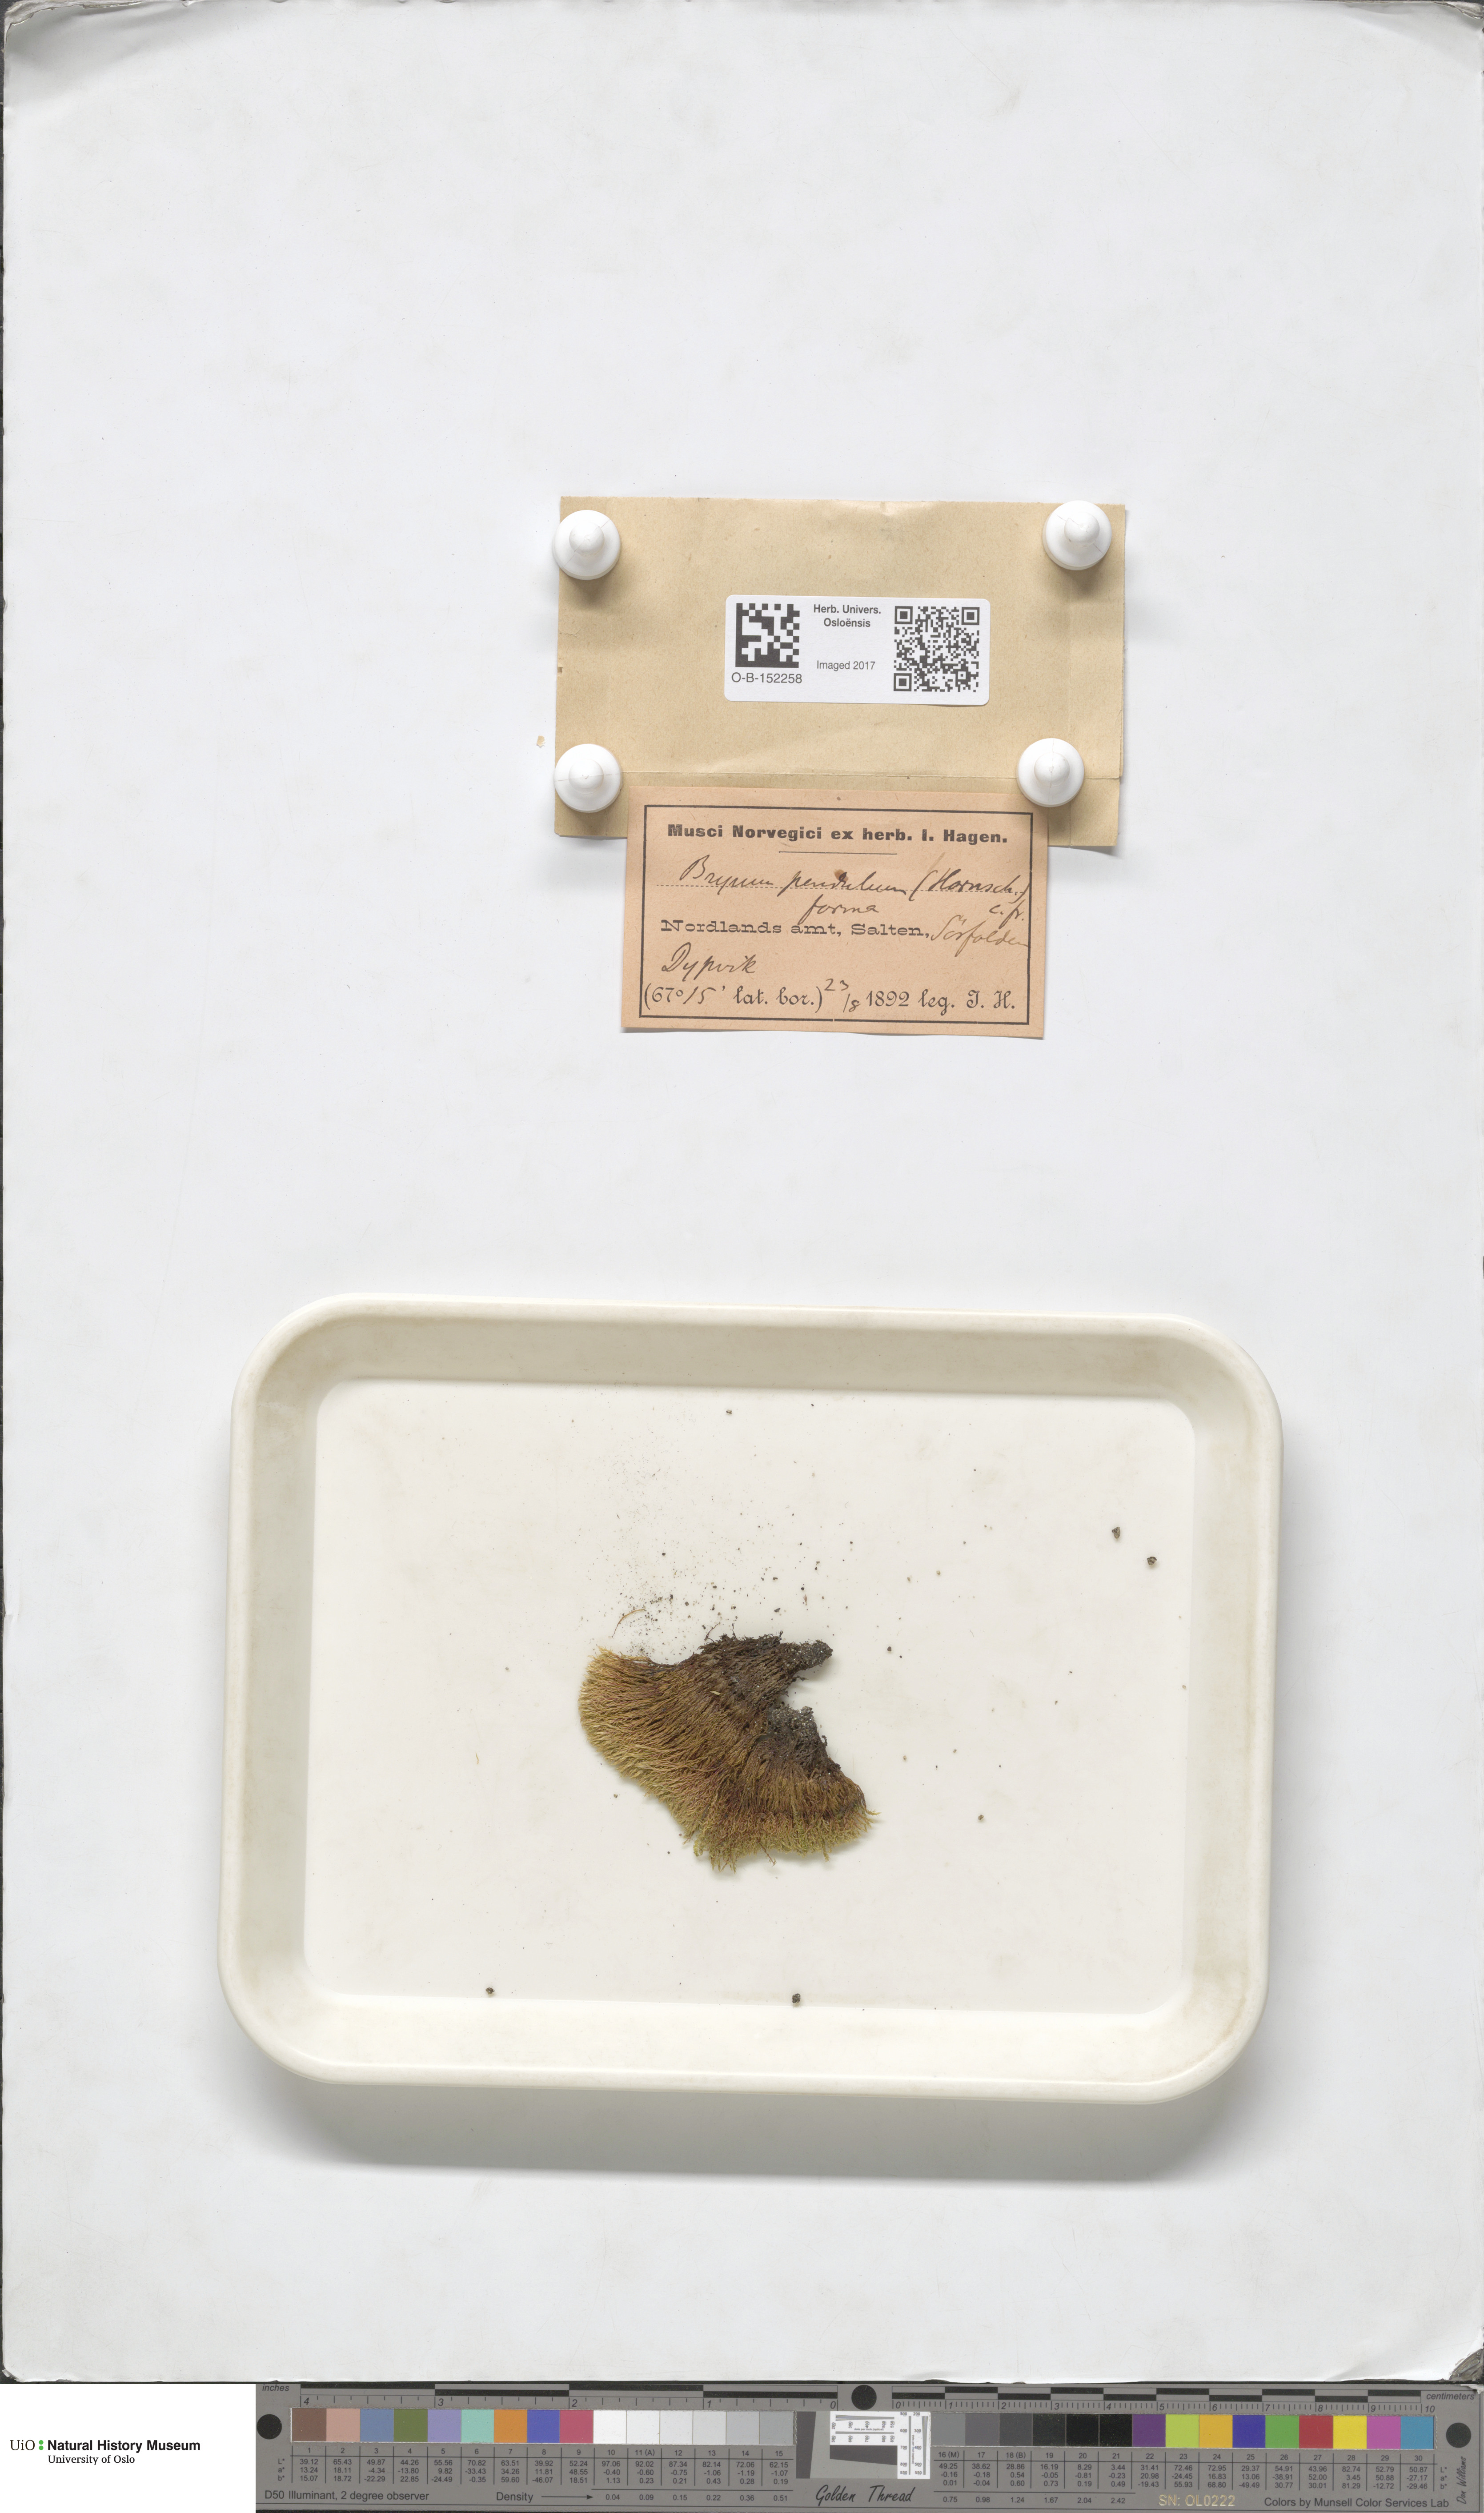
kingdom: Plantae
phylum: Bryophyta
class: Bryopsida
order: Bryales
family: Bryaceae
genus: Ptychostomum
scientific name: Ptychostomum compactum
